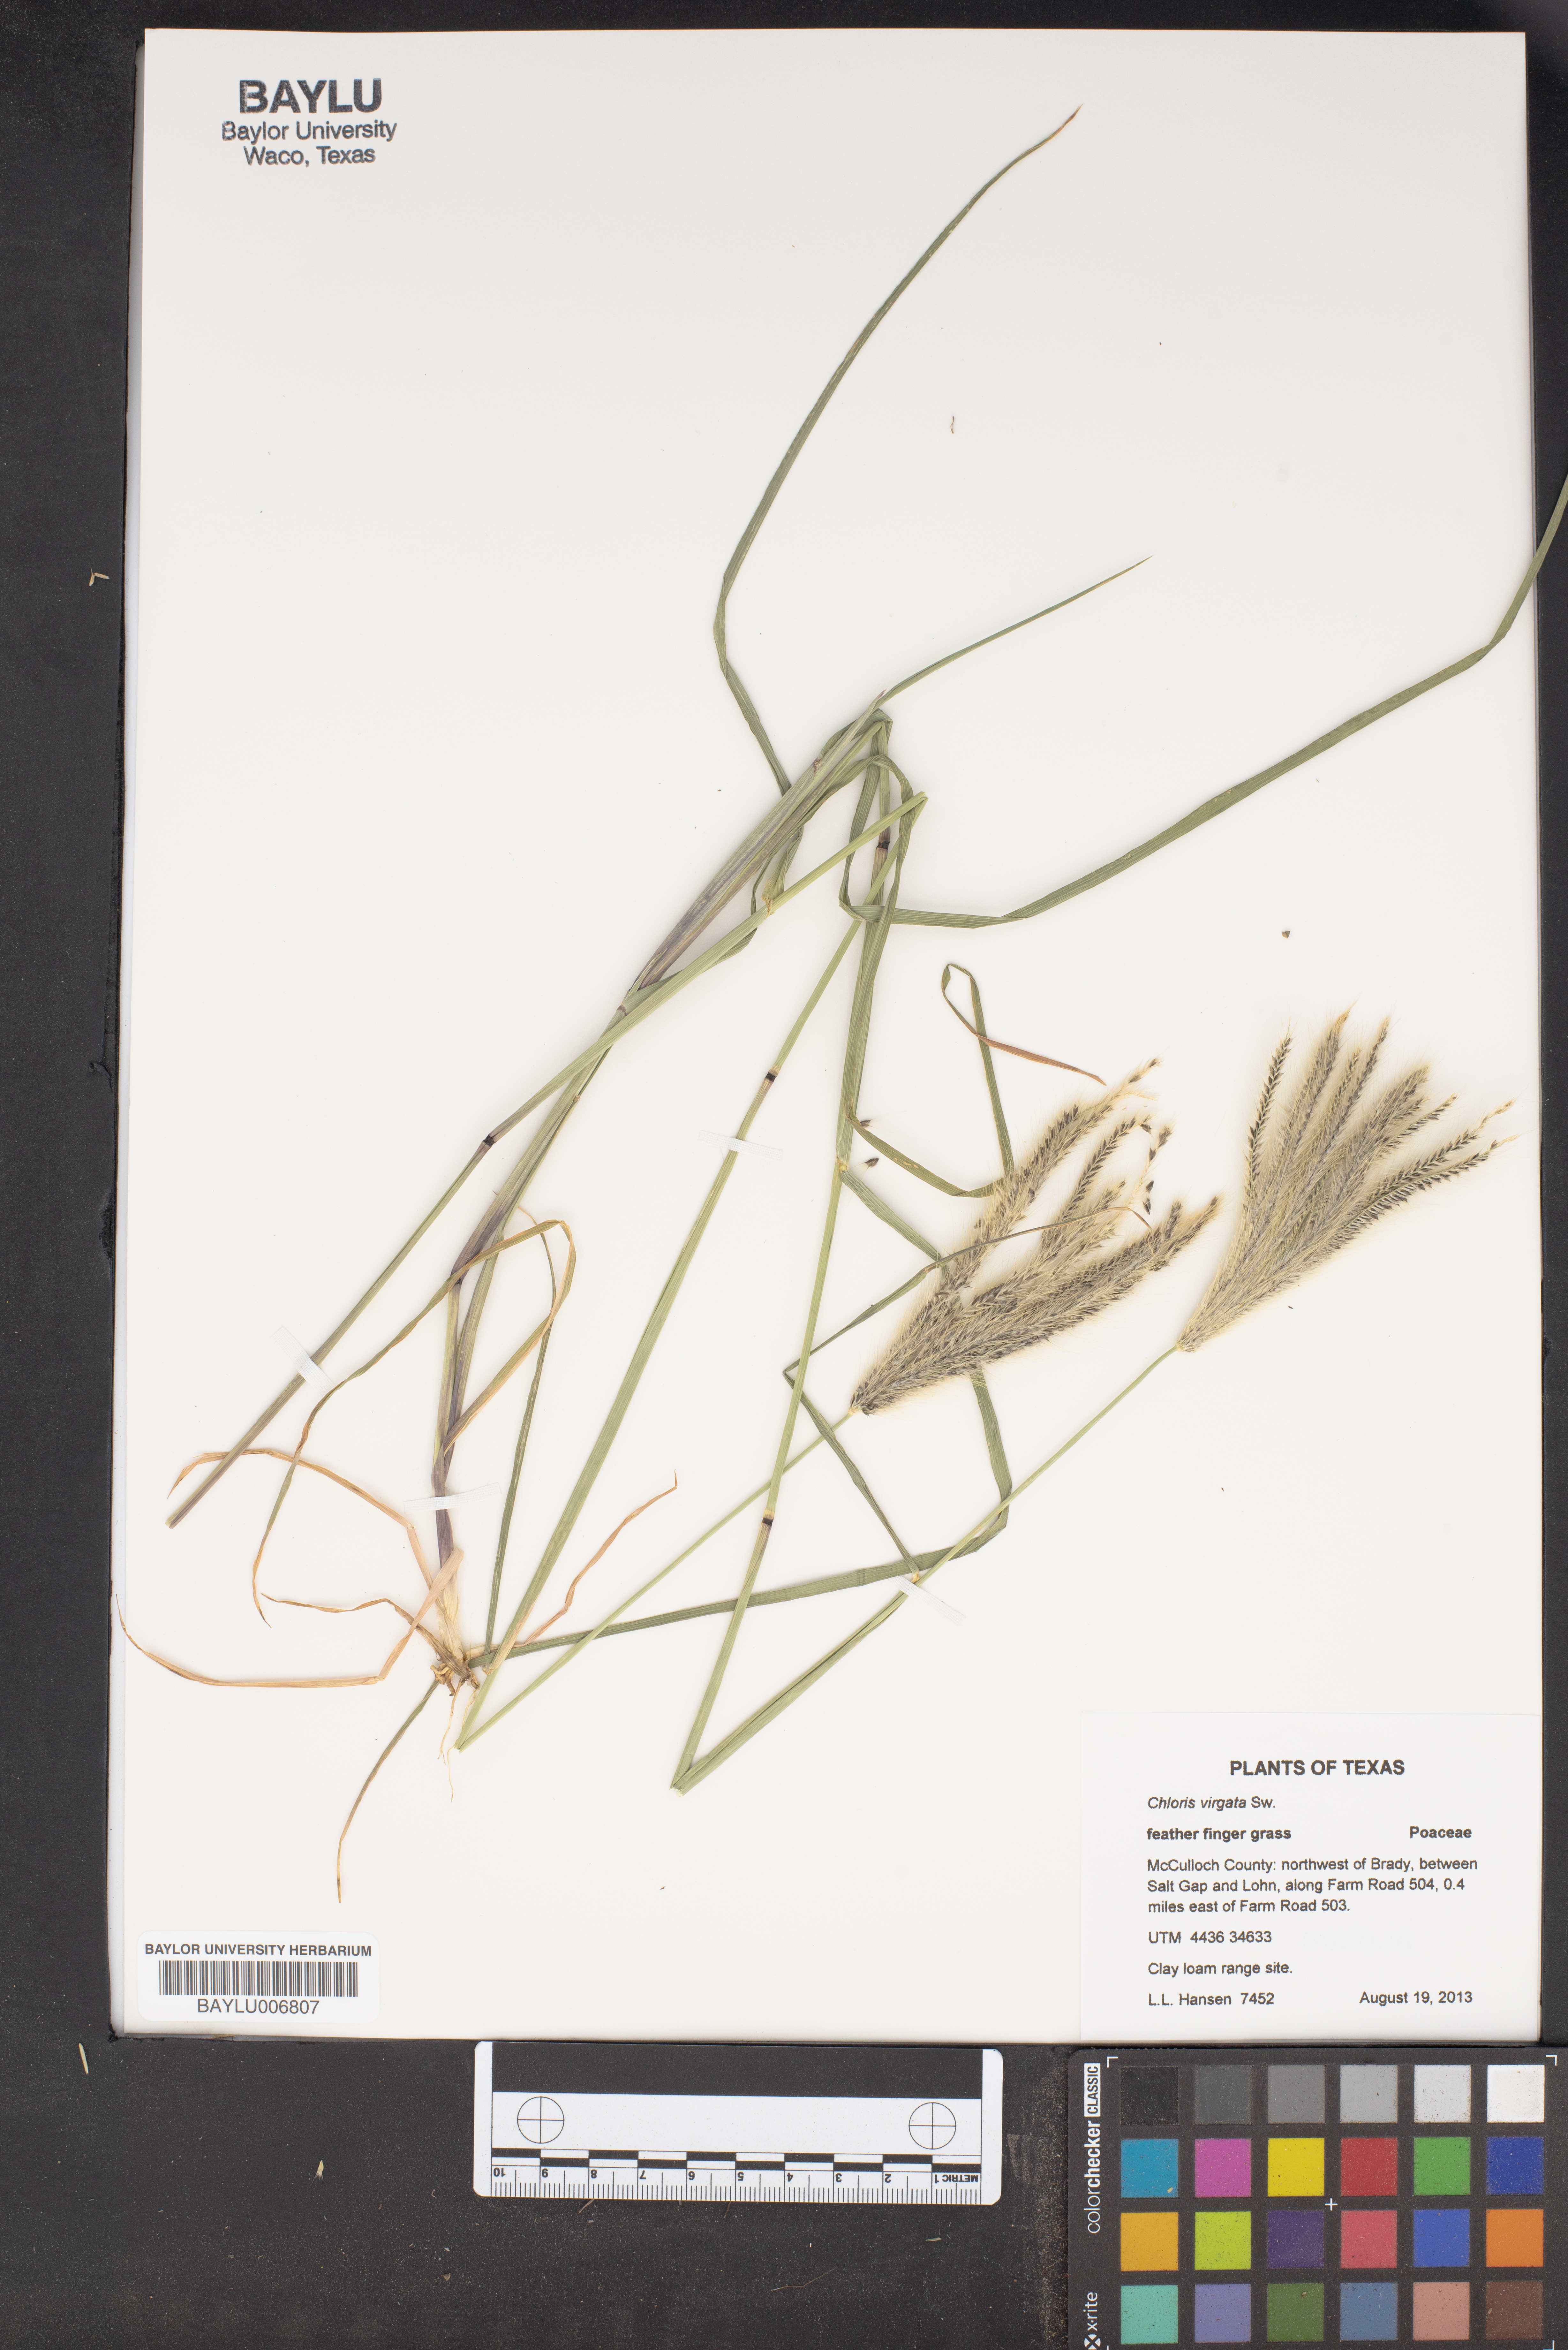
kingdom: Plantae
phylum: Tracheophyta
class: Liliopsida
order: Poales
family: Poaceae
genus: Chloris
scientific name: Chloris virgata
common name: Feathery rhodes-grass
